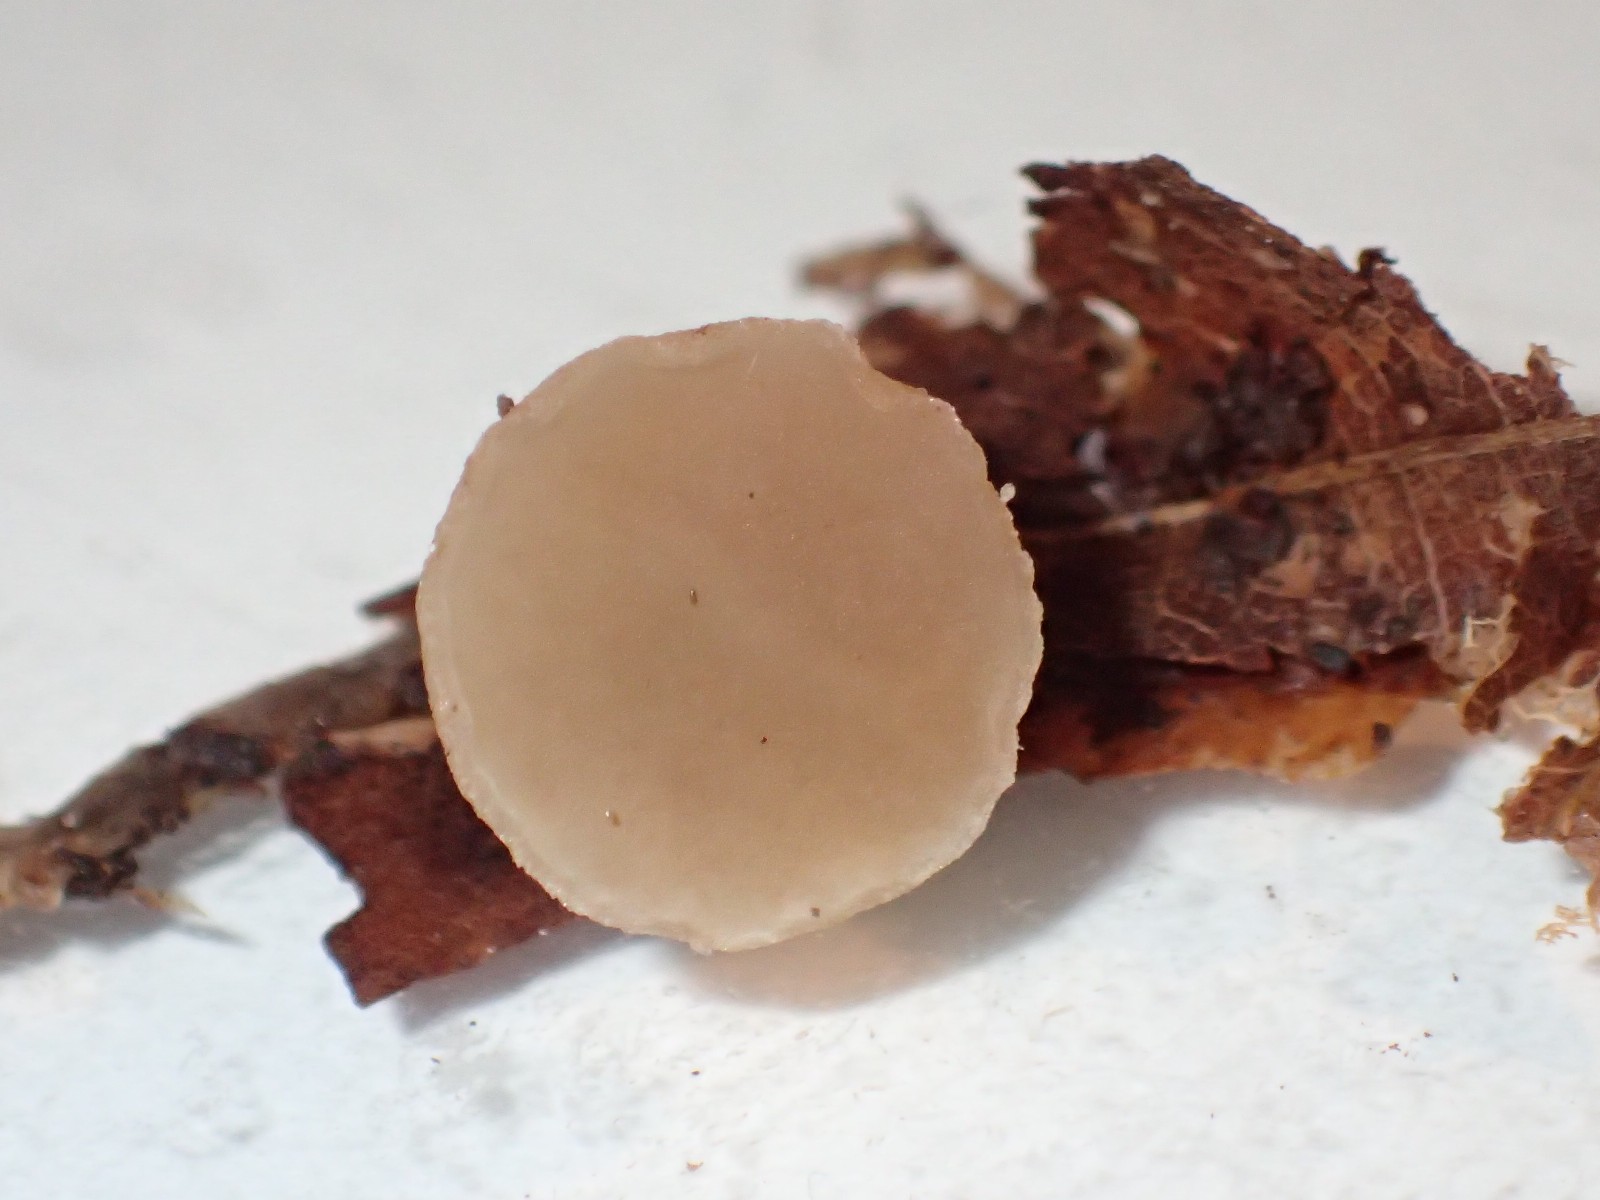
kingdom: Fungi
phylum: Ascomycota
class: Pezizomycetes
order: Pezizales
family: Pezizaceae
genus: Peziza
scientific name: Peziza
